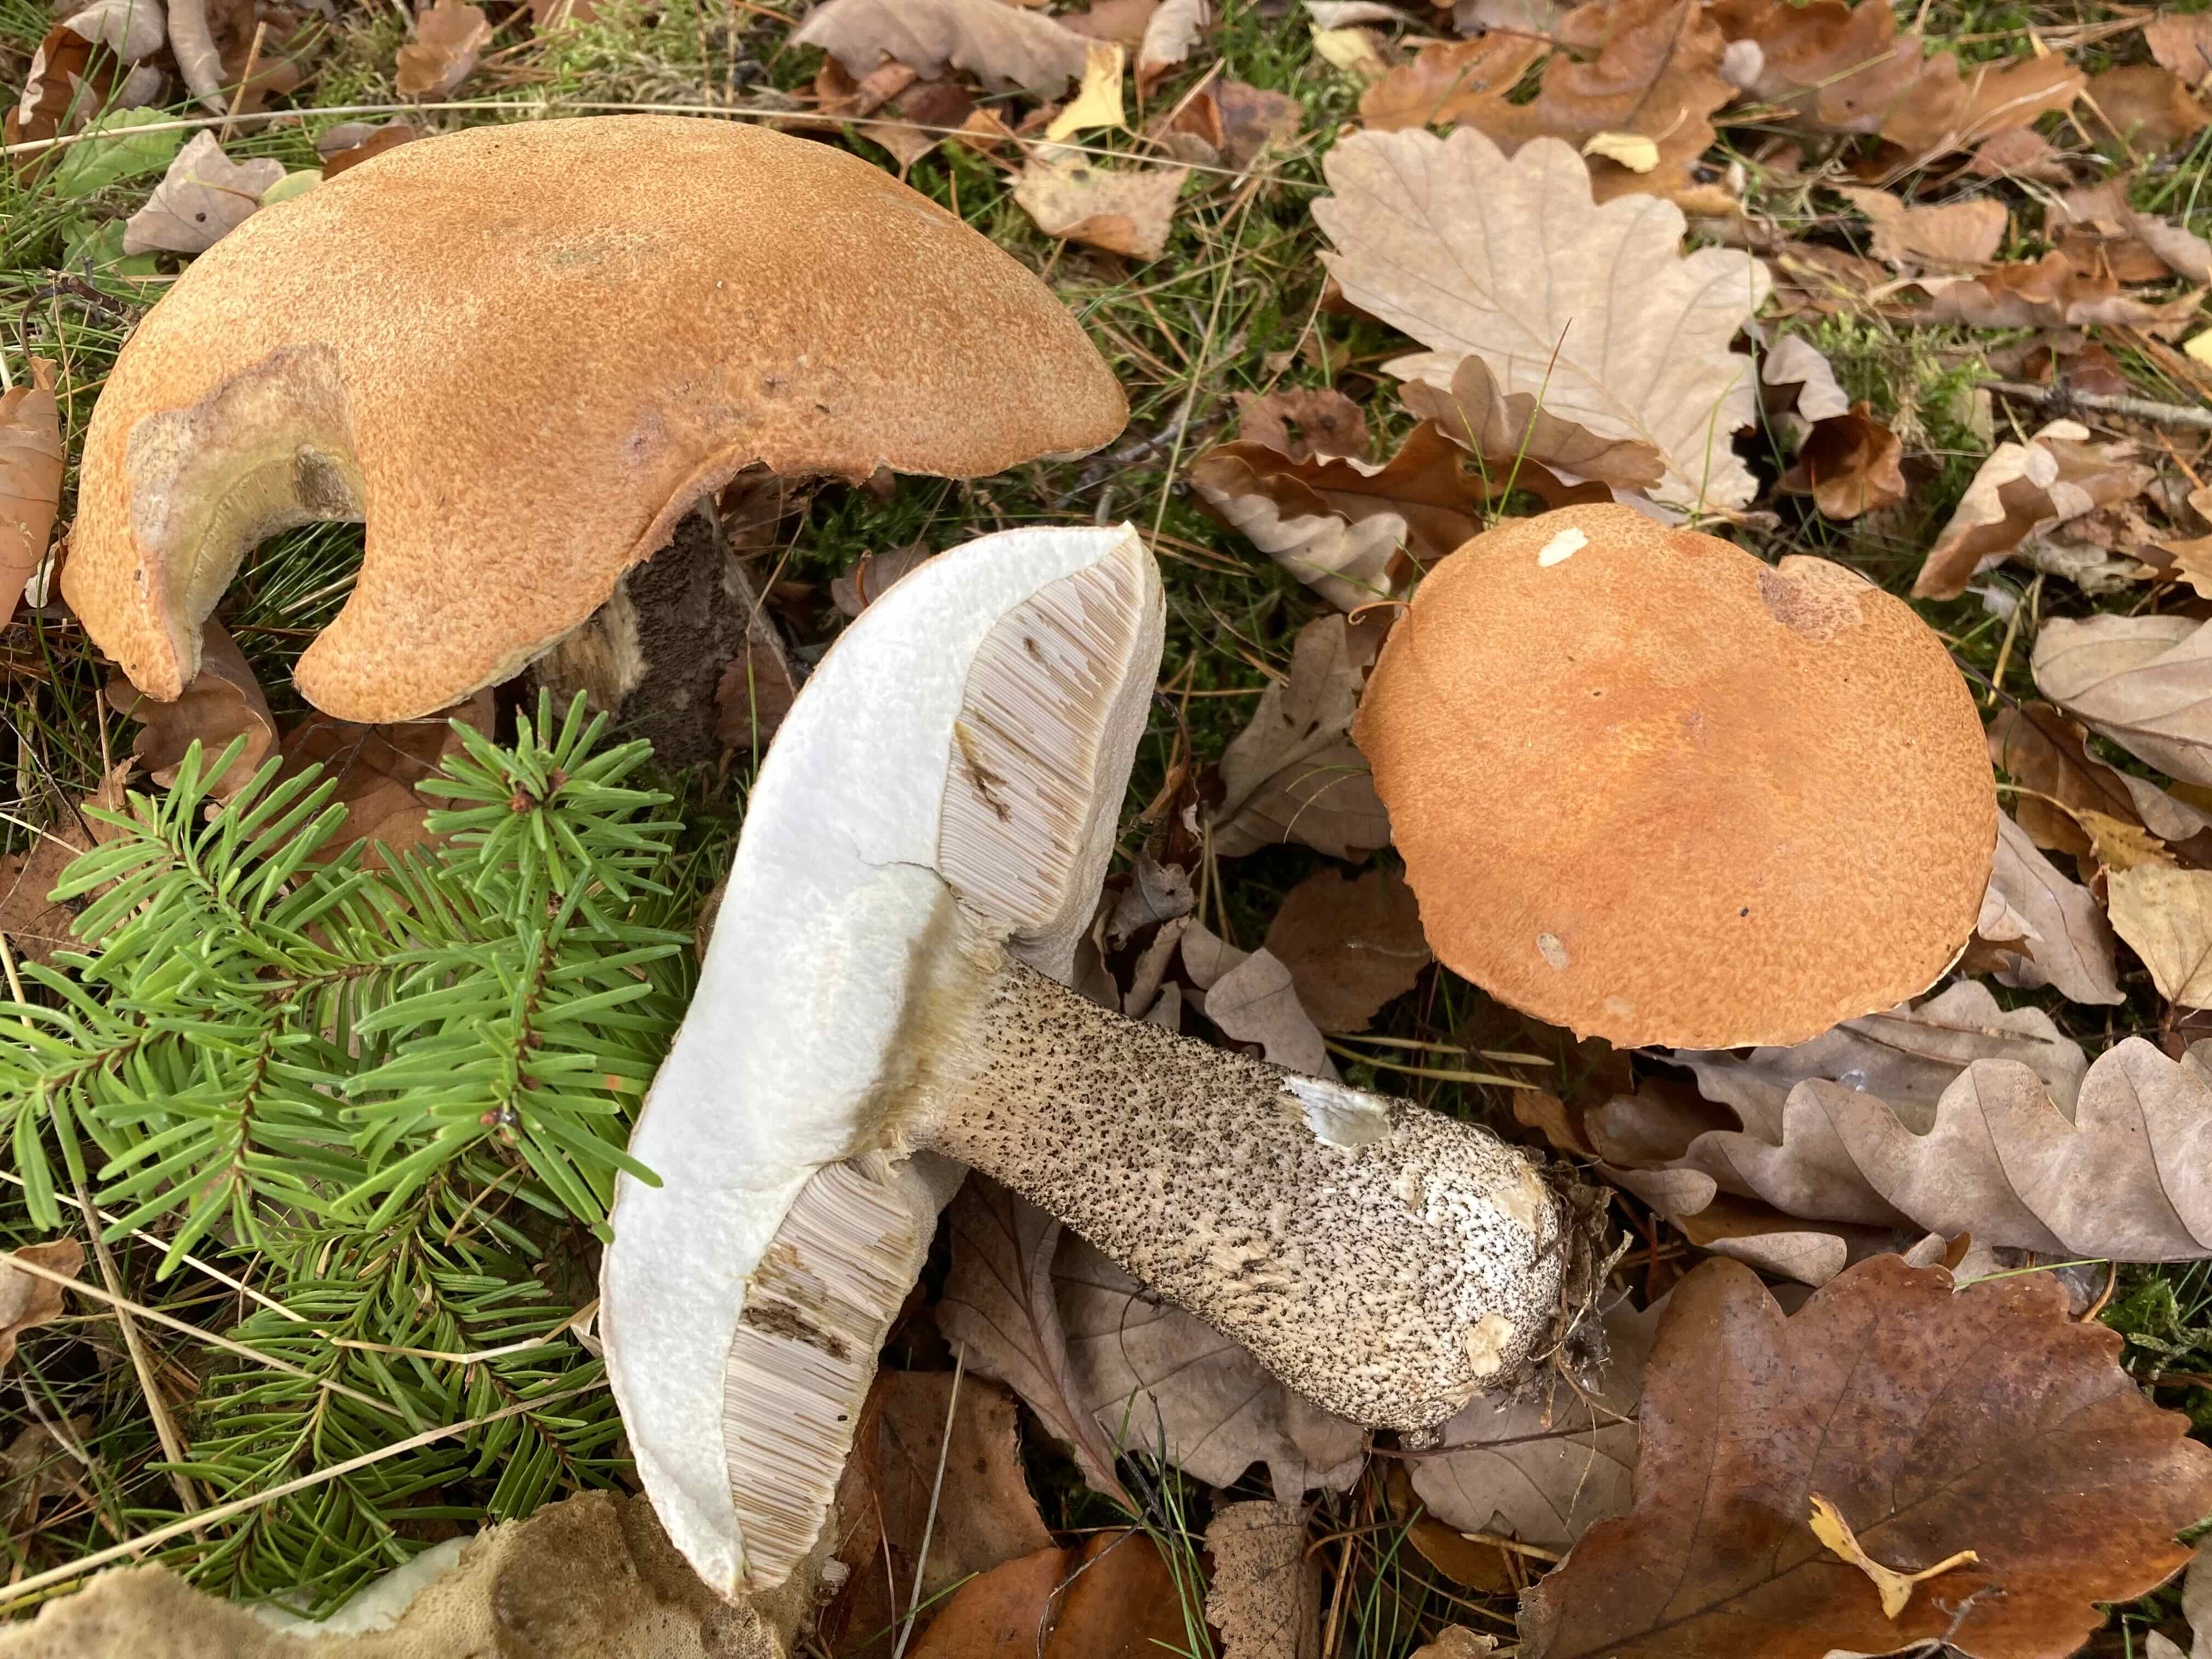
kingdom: Fungi
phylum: Basidiomycota
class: Agaricomycetes
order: Boletales
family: Boletaceae
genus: Leccinum
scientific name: Leccinum versipelle
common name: orange skælrørhat
